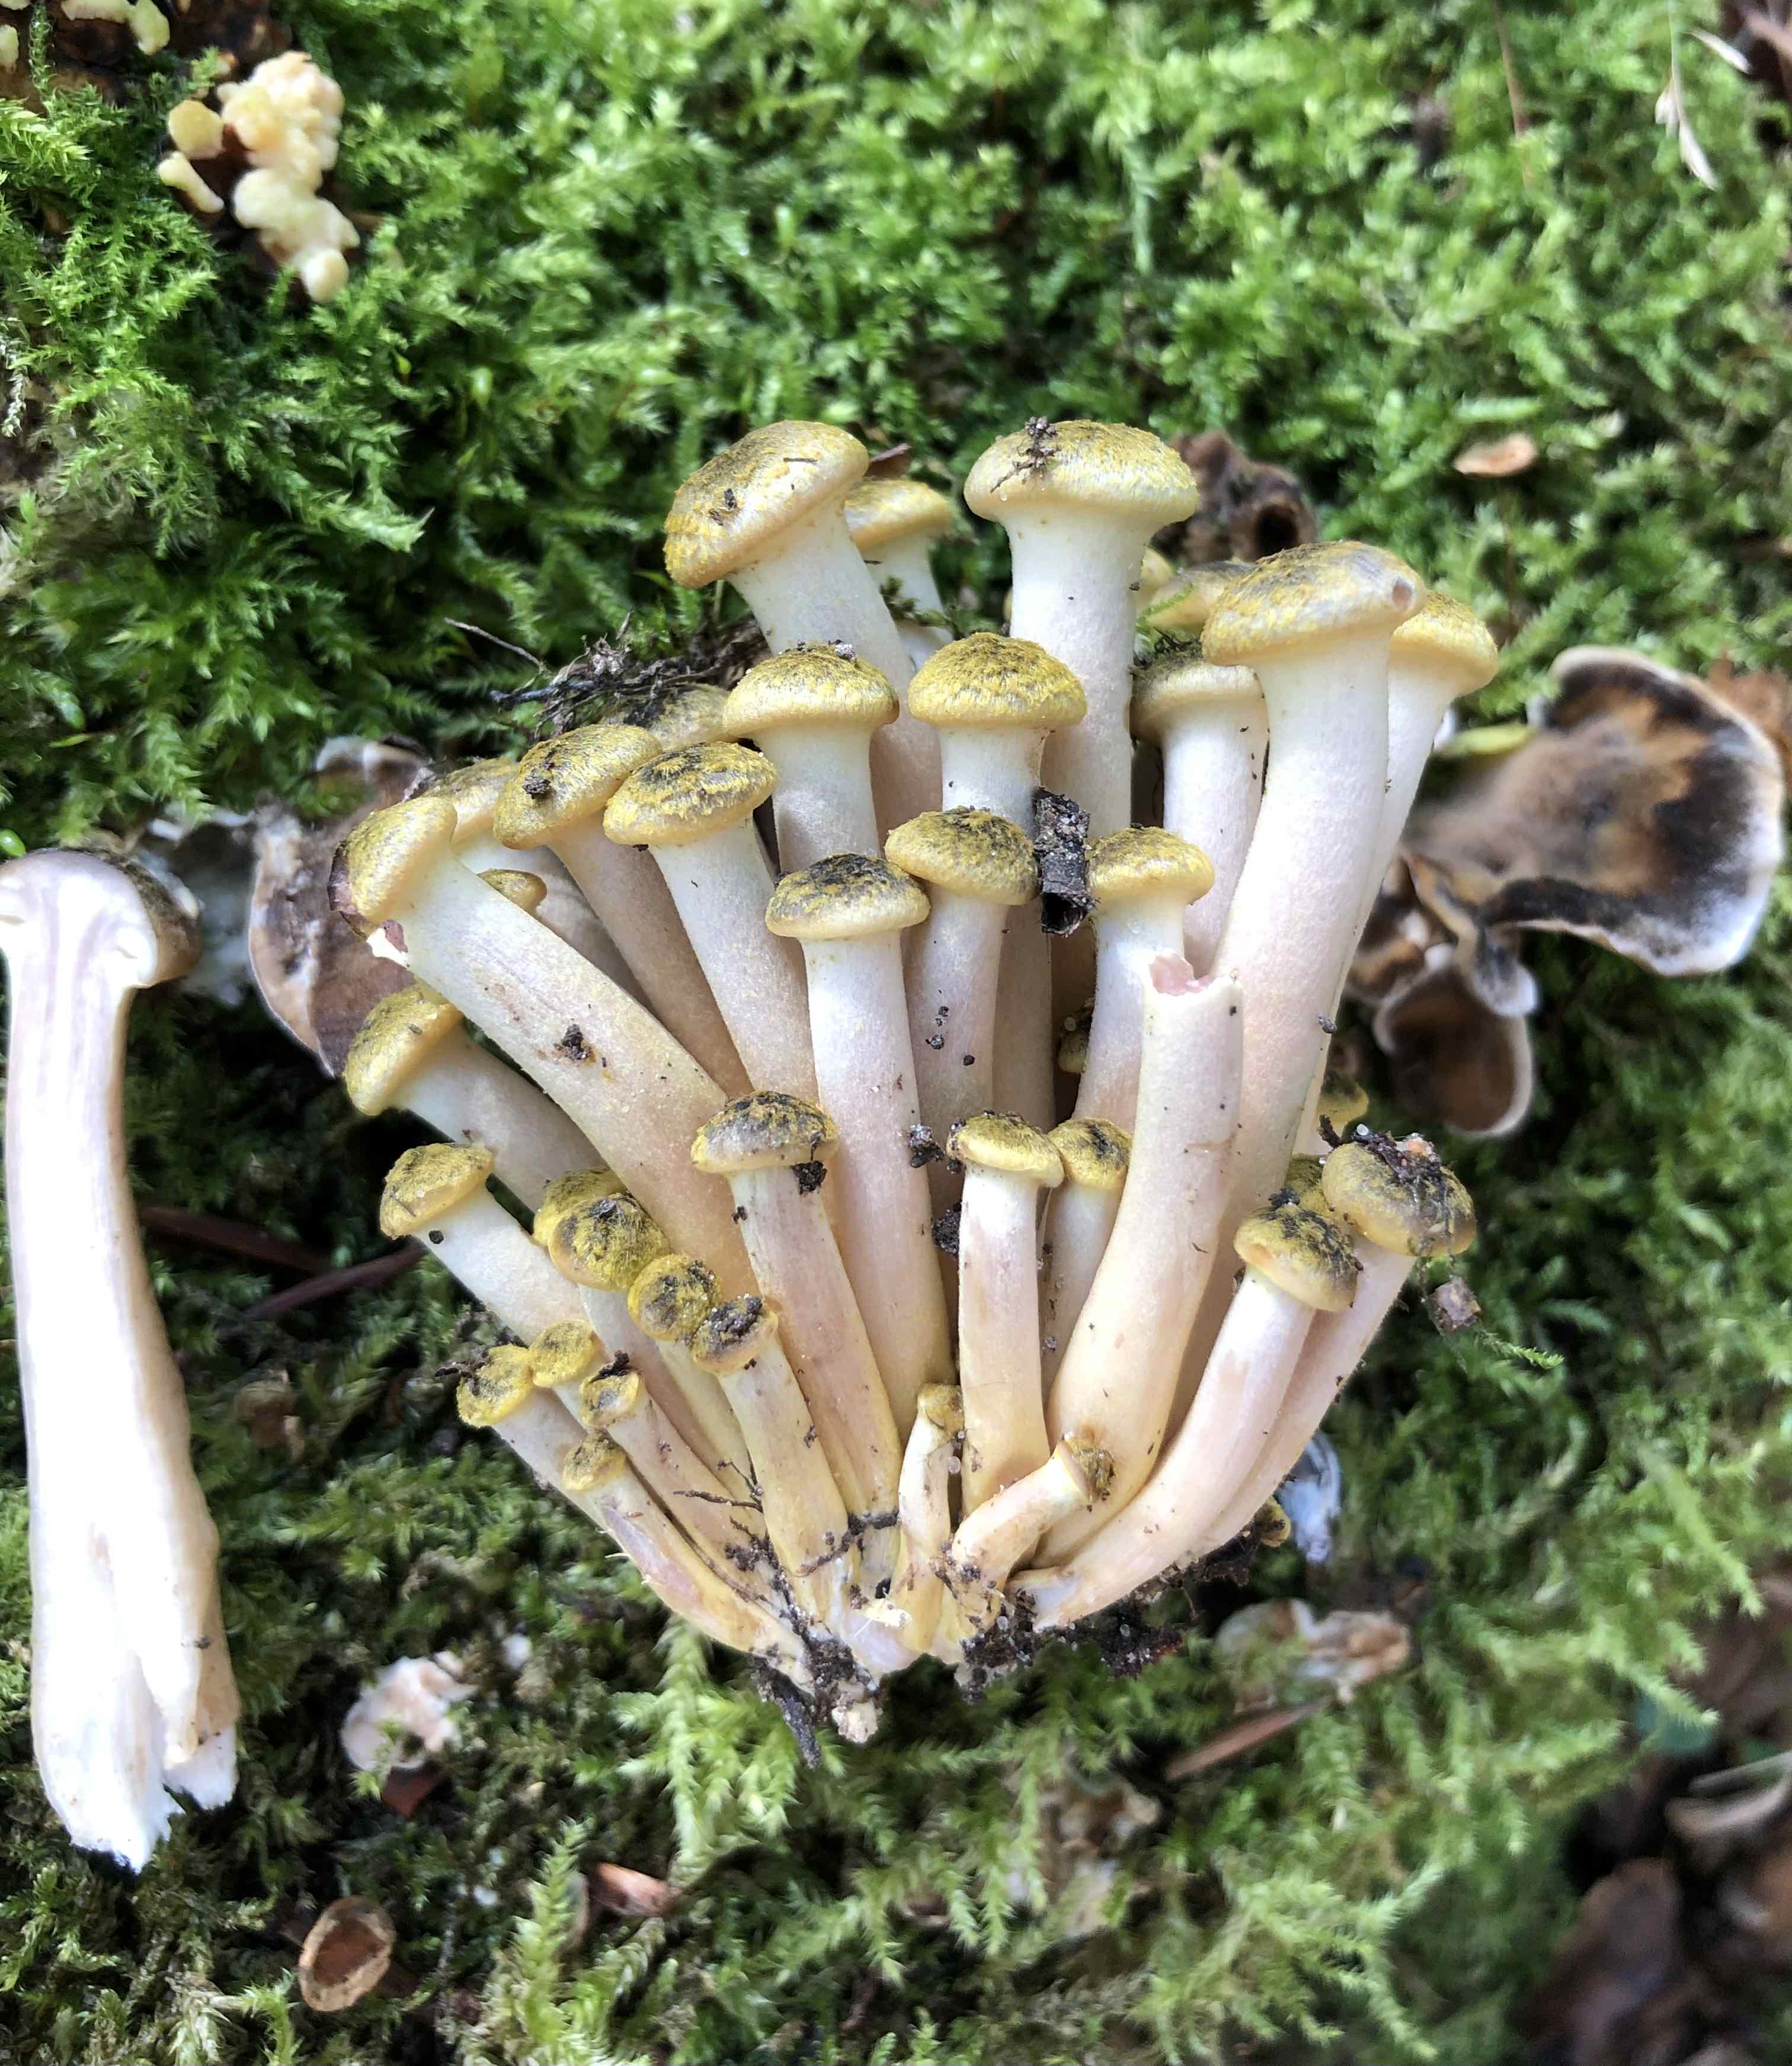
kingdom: Fungi
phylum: Basidiomycota
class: Agaricomycetes
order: Agaricales
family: Physalacriaceae
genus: Armillaria
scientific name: Armillaria mellea
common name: ægte honningsvamp
